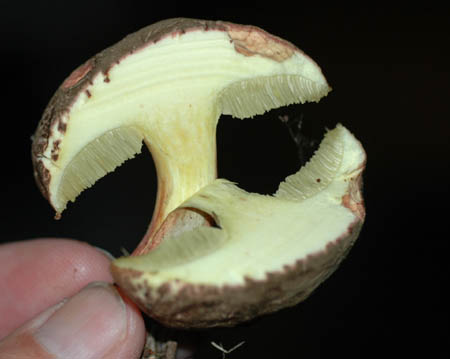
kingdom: Fungi
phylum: Basidiomycota
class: Agaricomycetes
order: Boletales
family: Boletaceae
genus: Xerocomellus
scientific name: Xerocomellus chrysenteron
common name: rødsprukken rørhat
